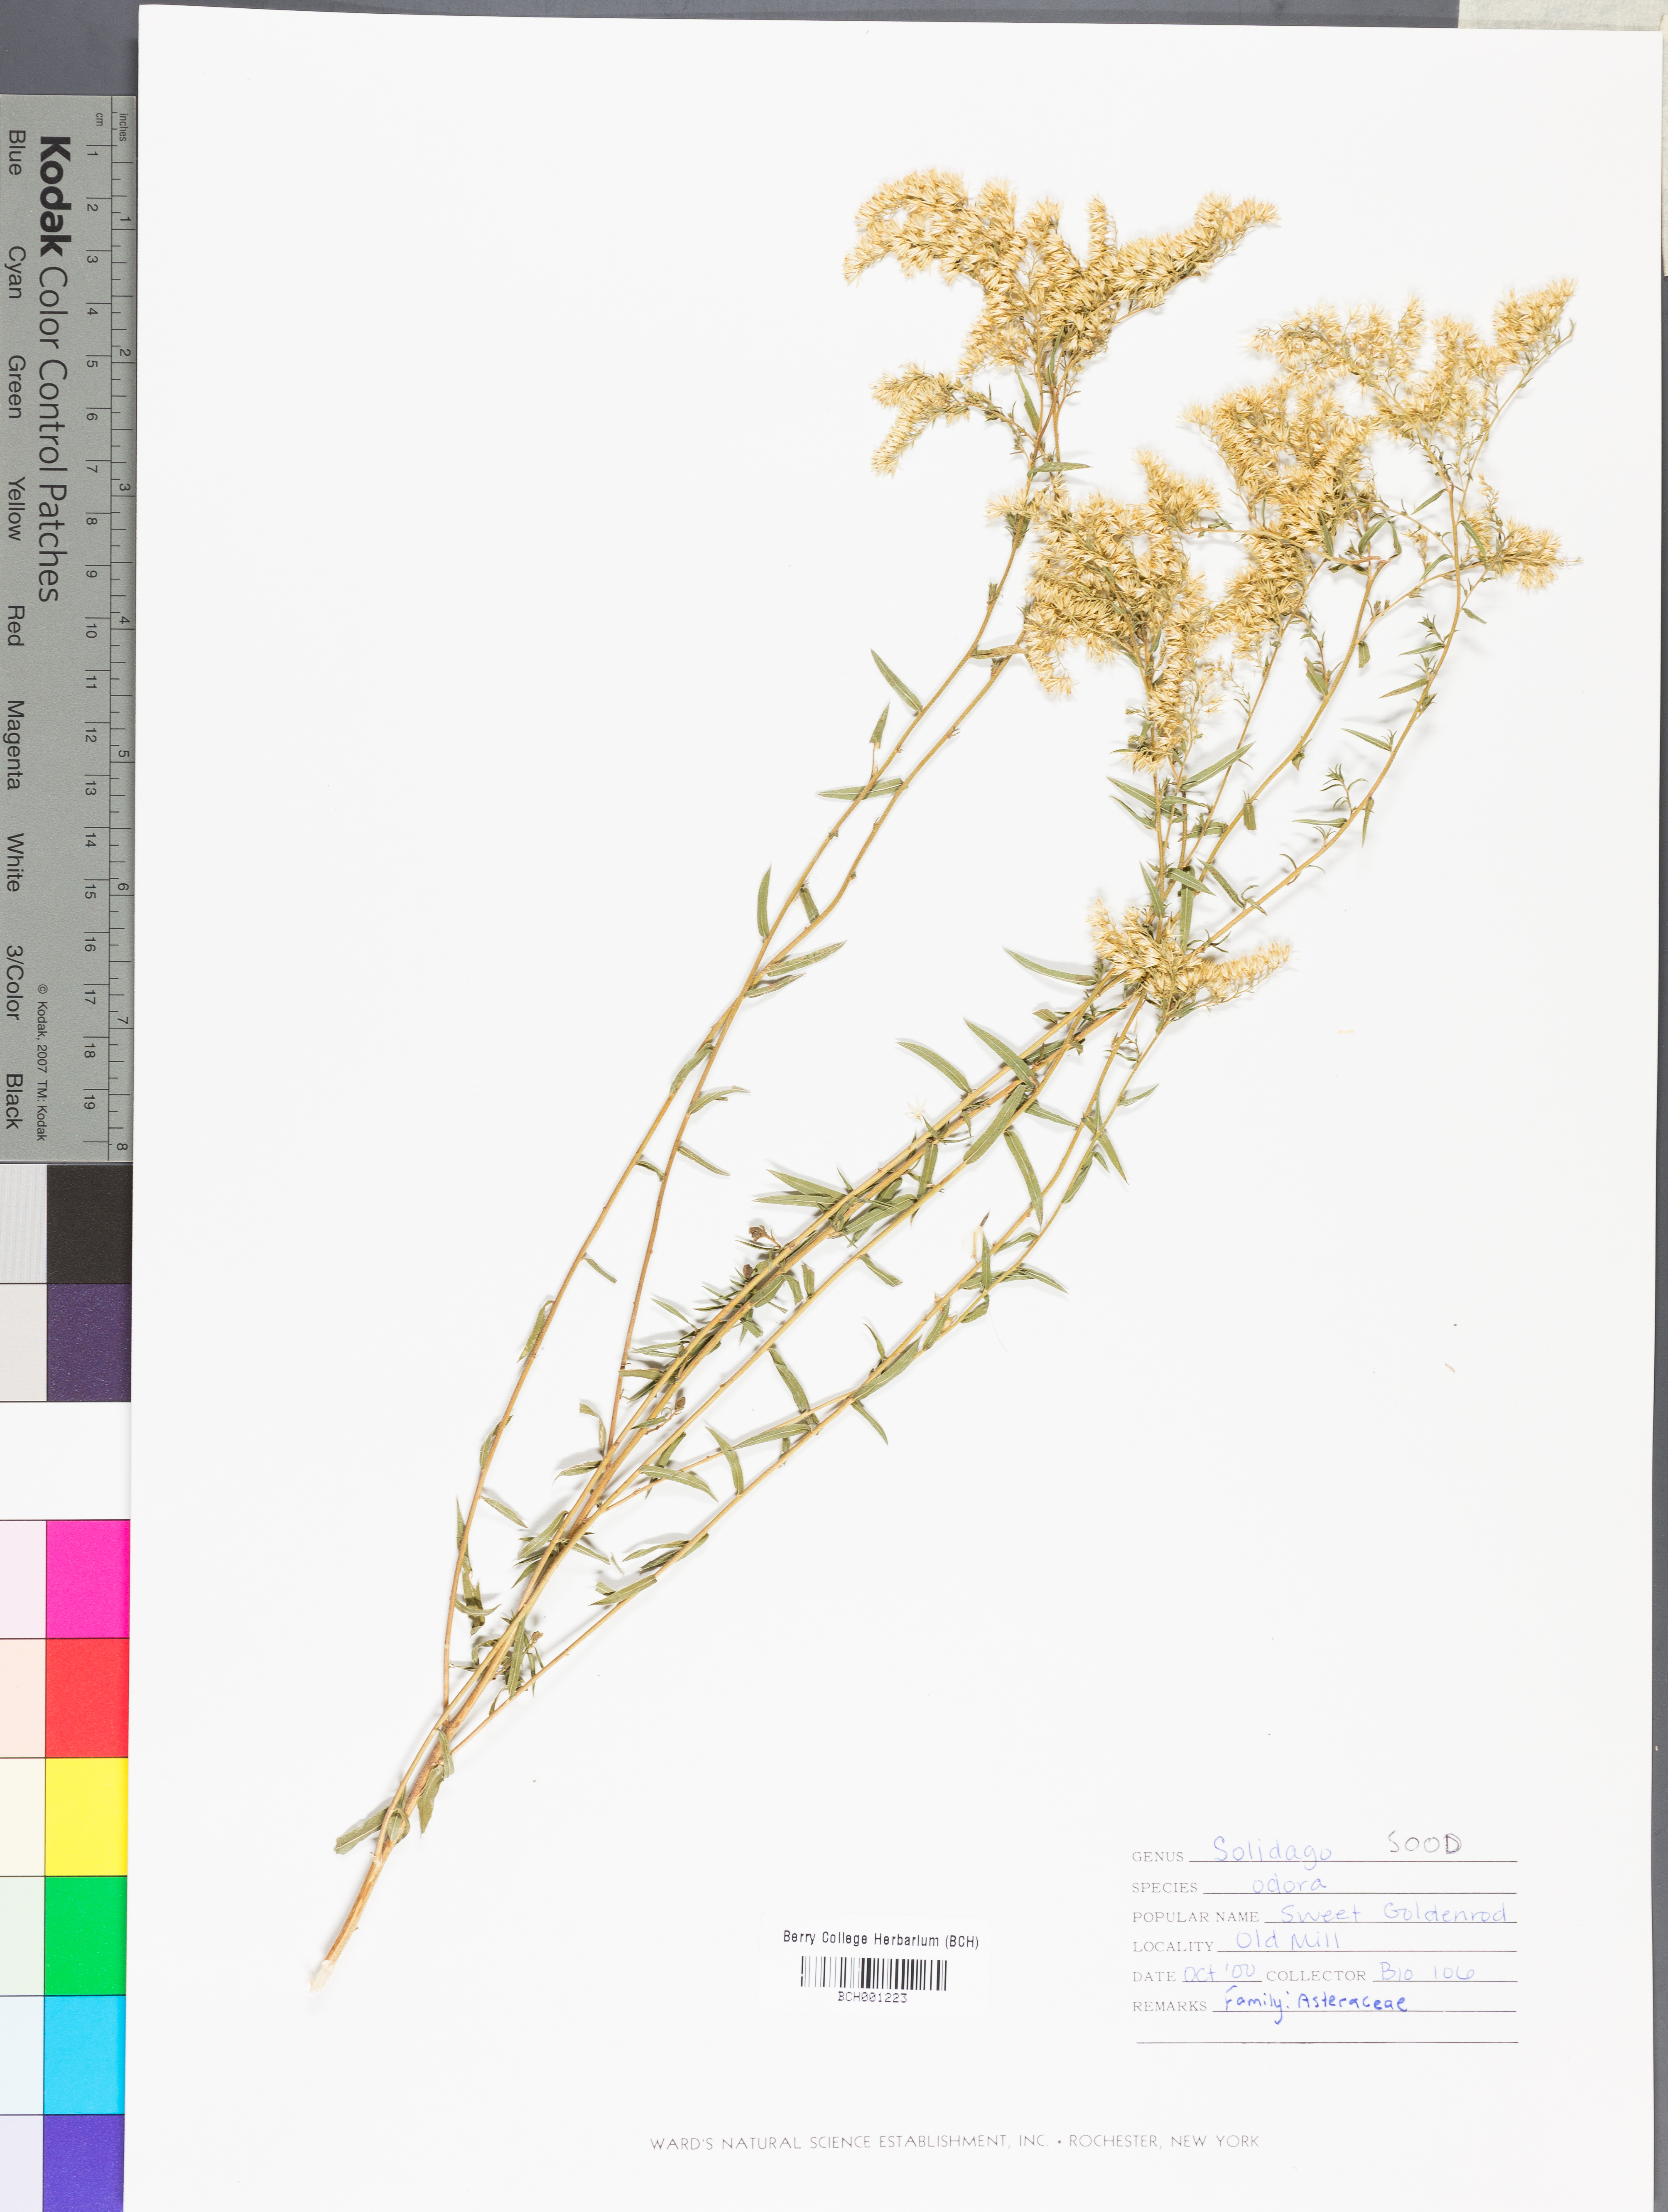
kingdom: Plantae
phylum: Tracheophyta
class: Magnoliopsida
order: Asterales
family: Asteraceae
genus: Solidago
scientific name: Solidago odora
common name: Anise-scented goldenrod
